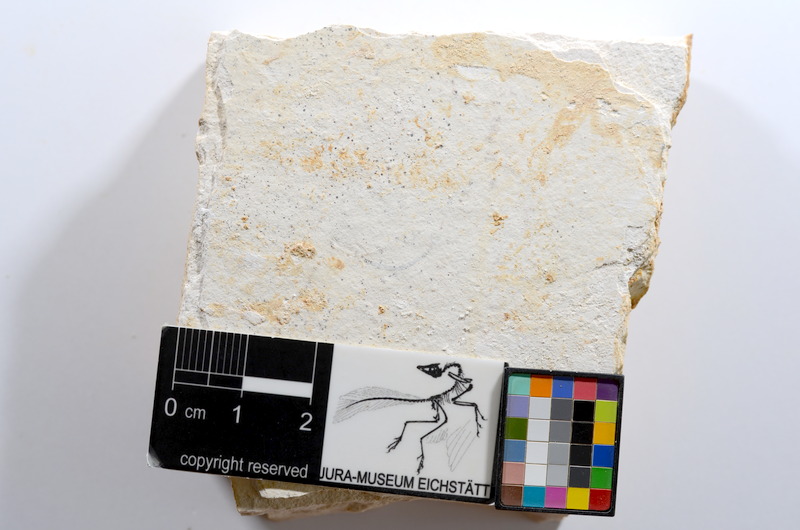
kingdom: Animalia
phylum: Chordata
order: Salmoniformes
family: Orthogonikleithridae
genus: Orthogonikleithrus
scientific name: Orthogonikleithrus hoelli
